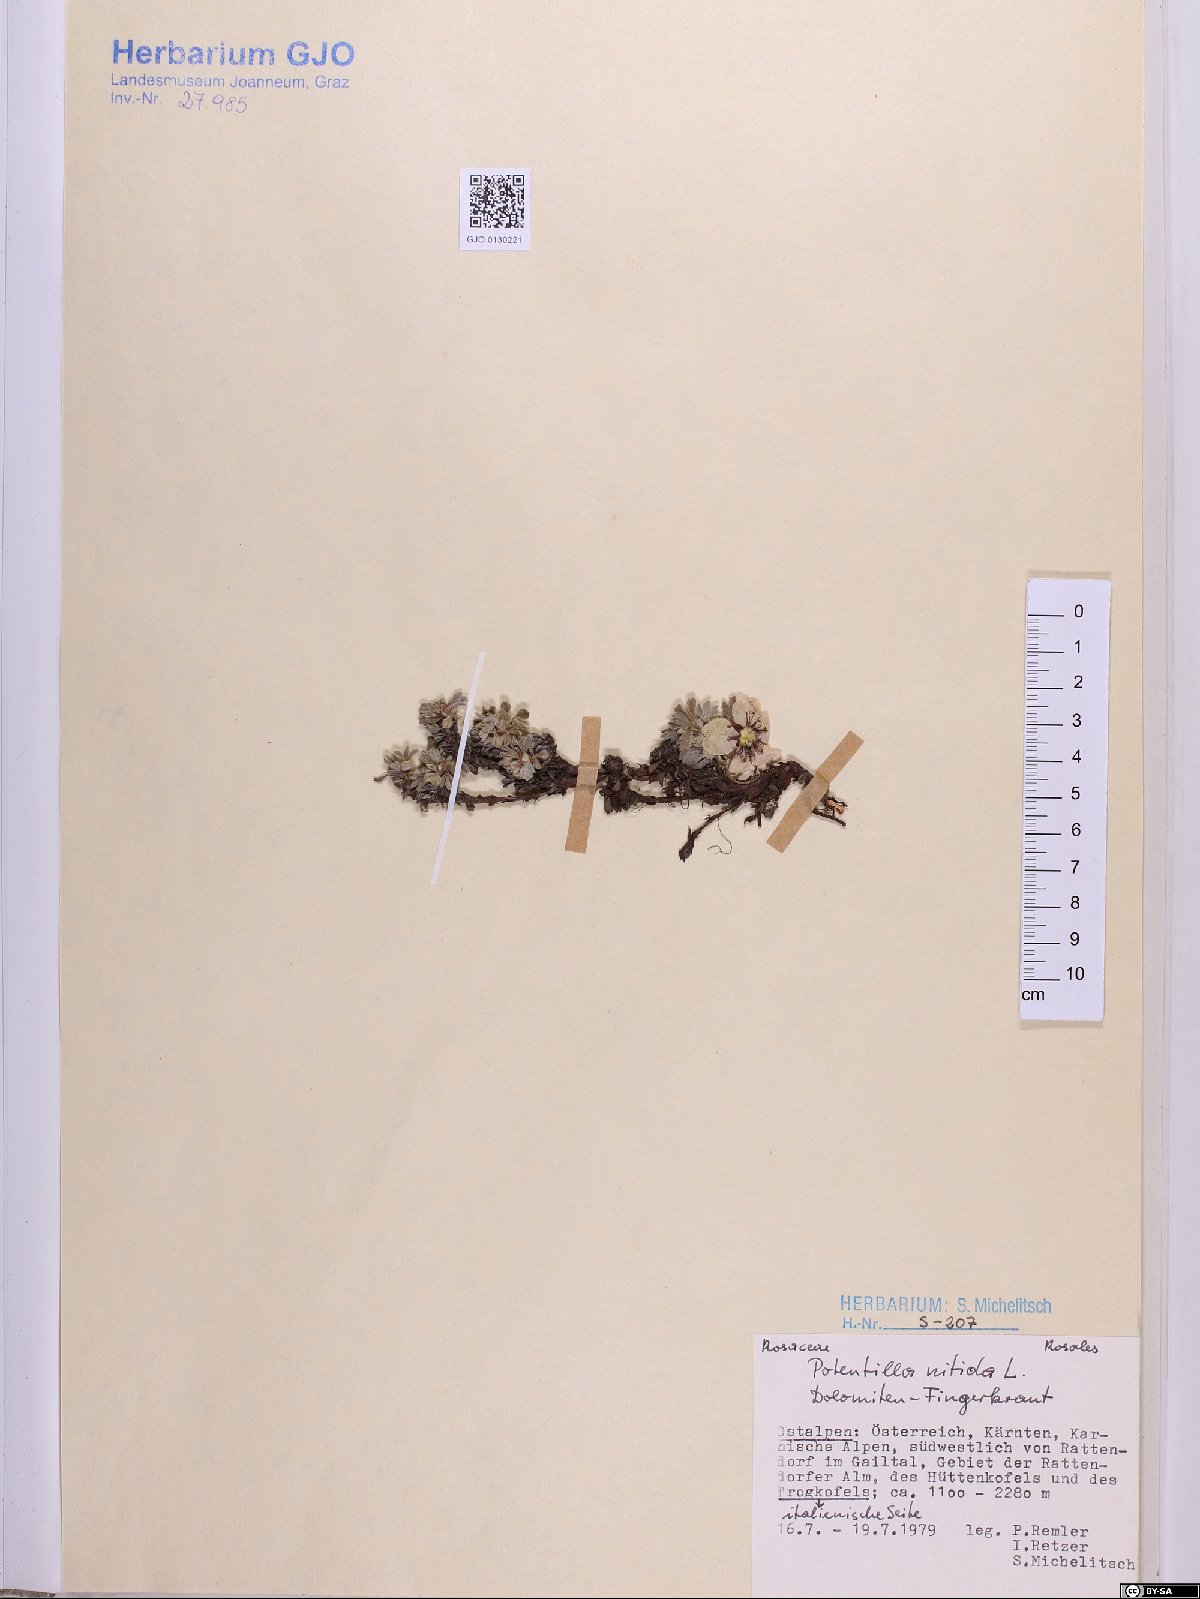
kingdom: Plantae
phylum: Tracheophyta
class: Magnoliopsida
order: Rosales
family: Rosaceae
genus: Potentilla
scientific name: Potentilla nitida
